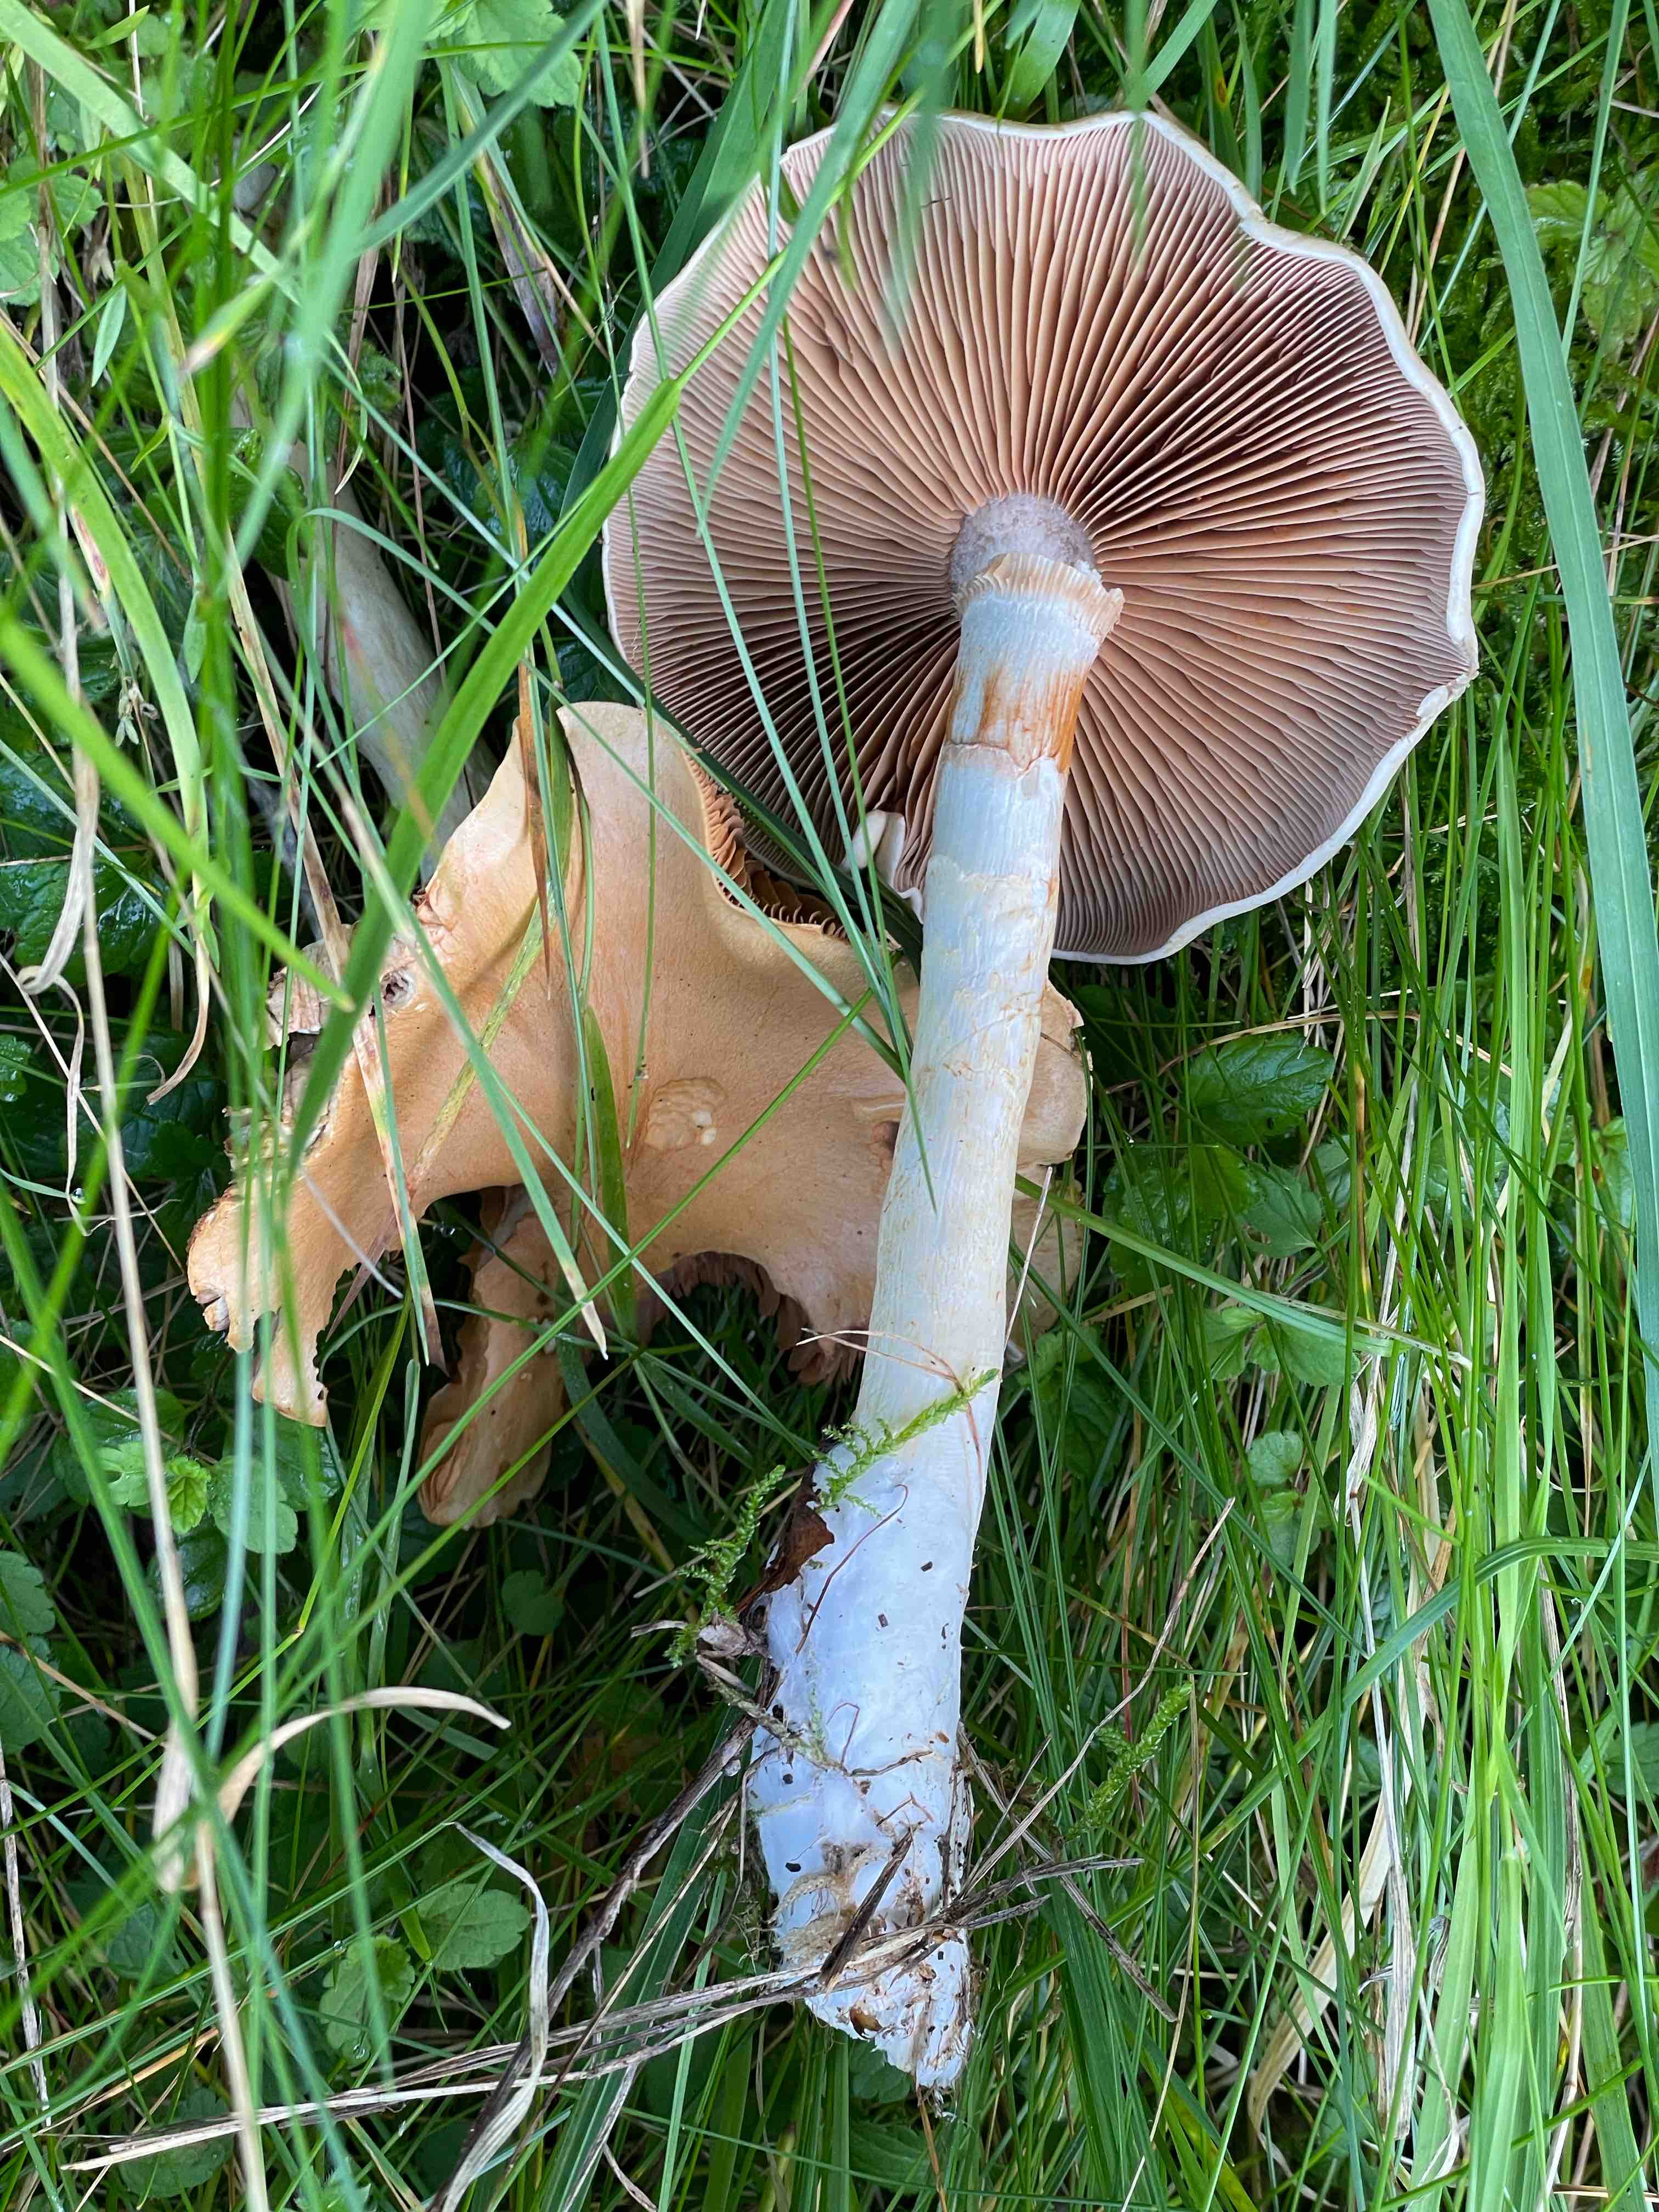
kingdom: Fungi
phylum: Basidiomycota
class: Agaricomycetes
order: Agaricales
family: Cortinariaceae
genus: Cortinarius
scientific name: Cortinarius
